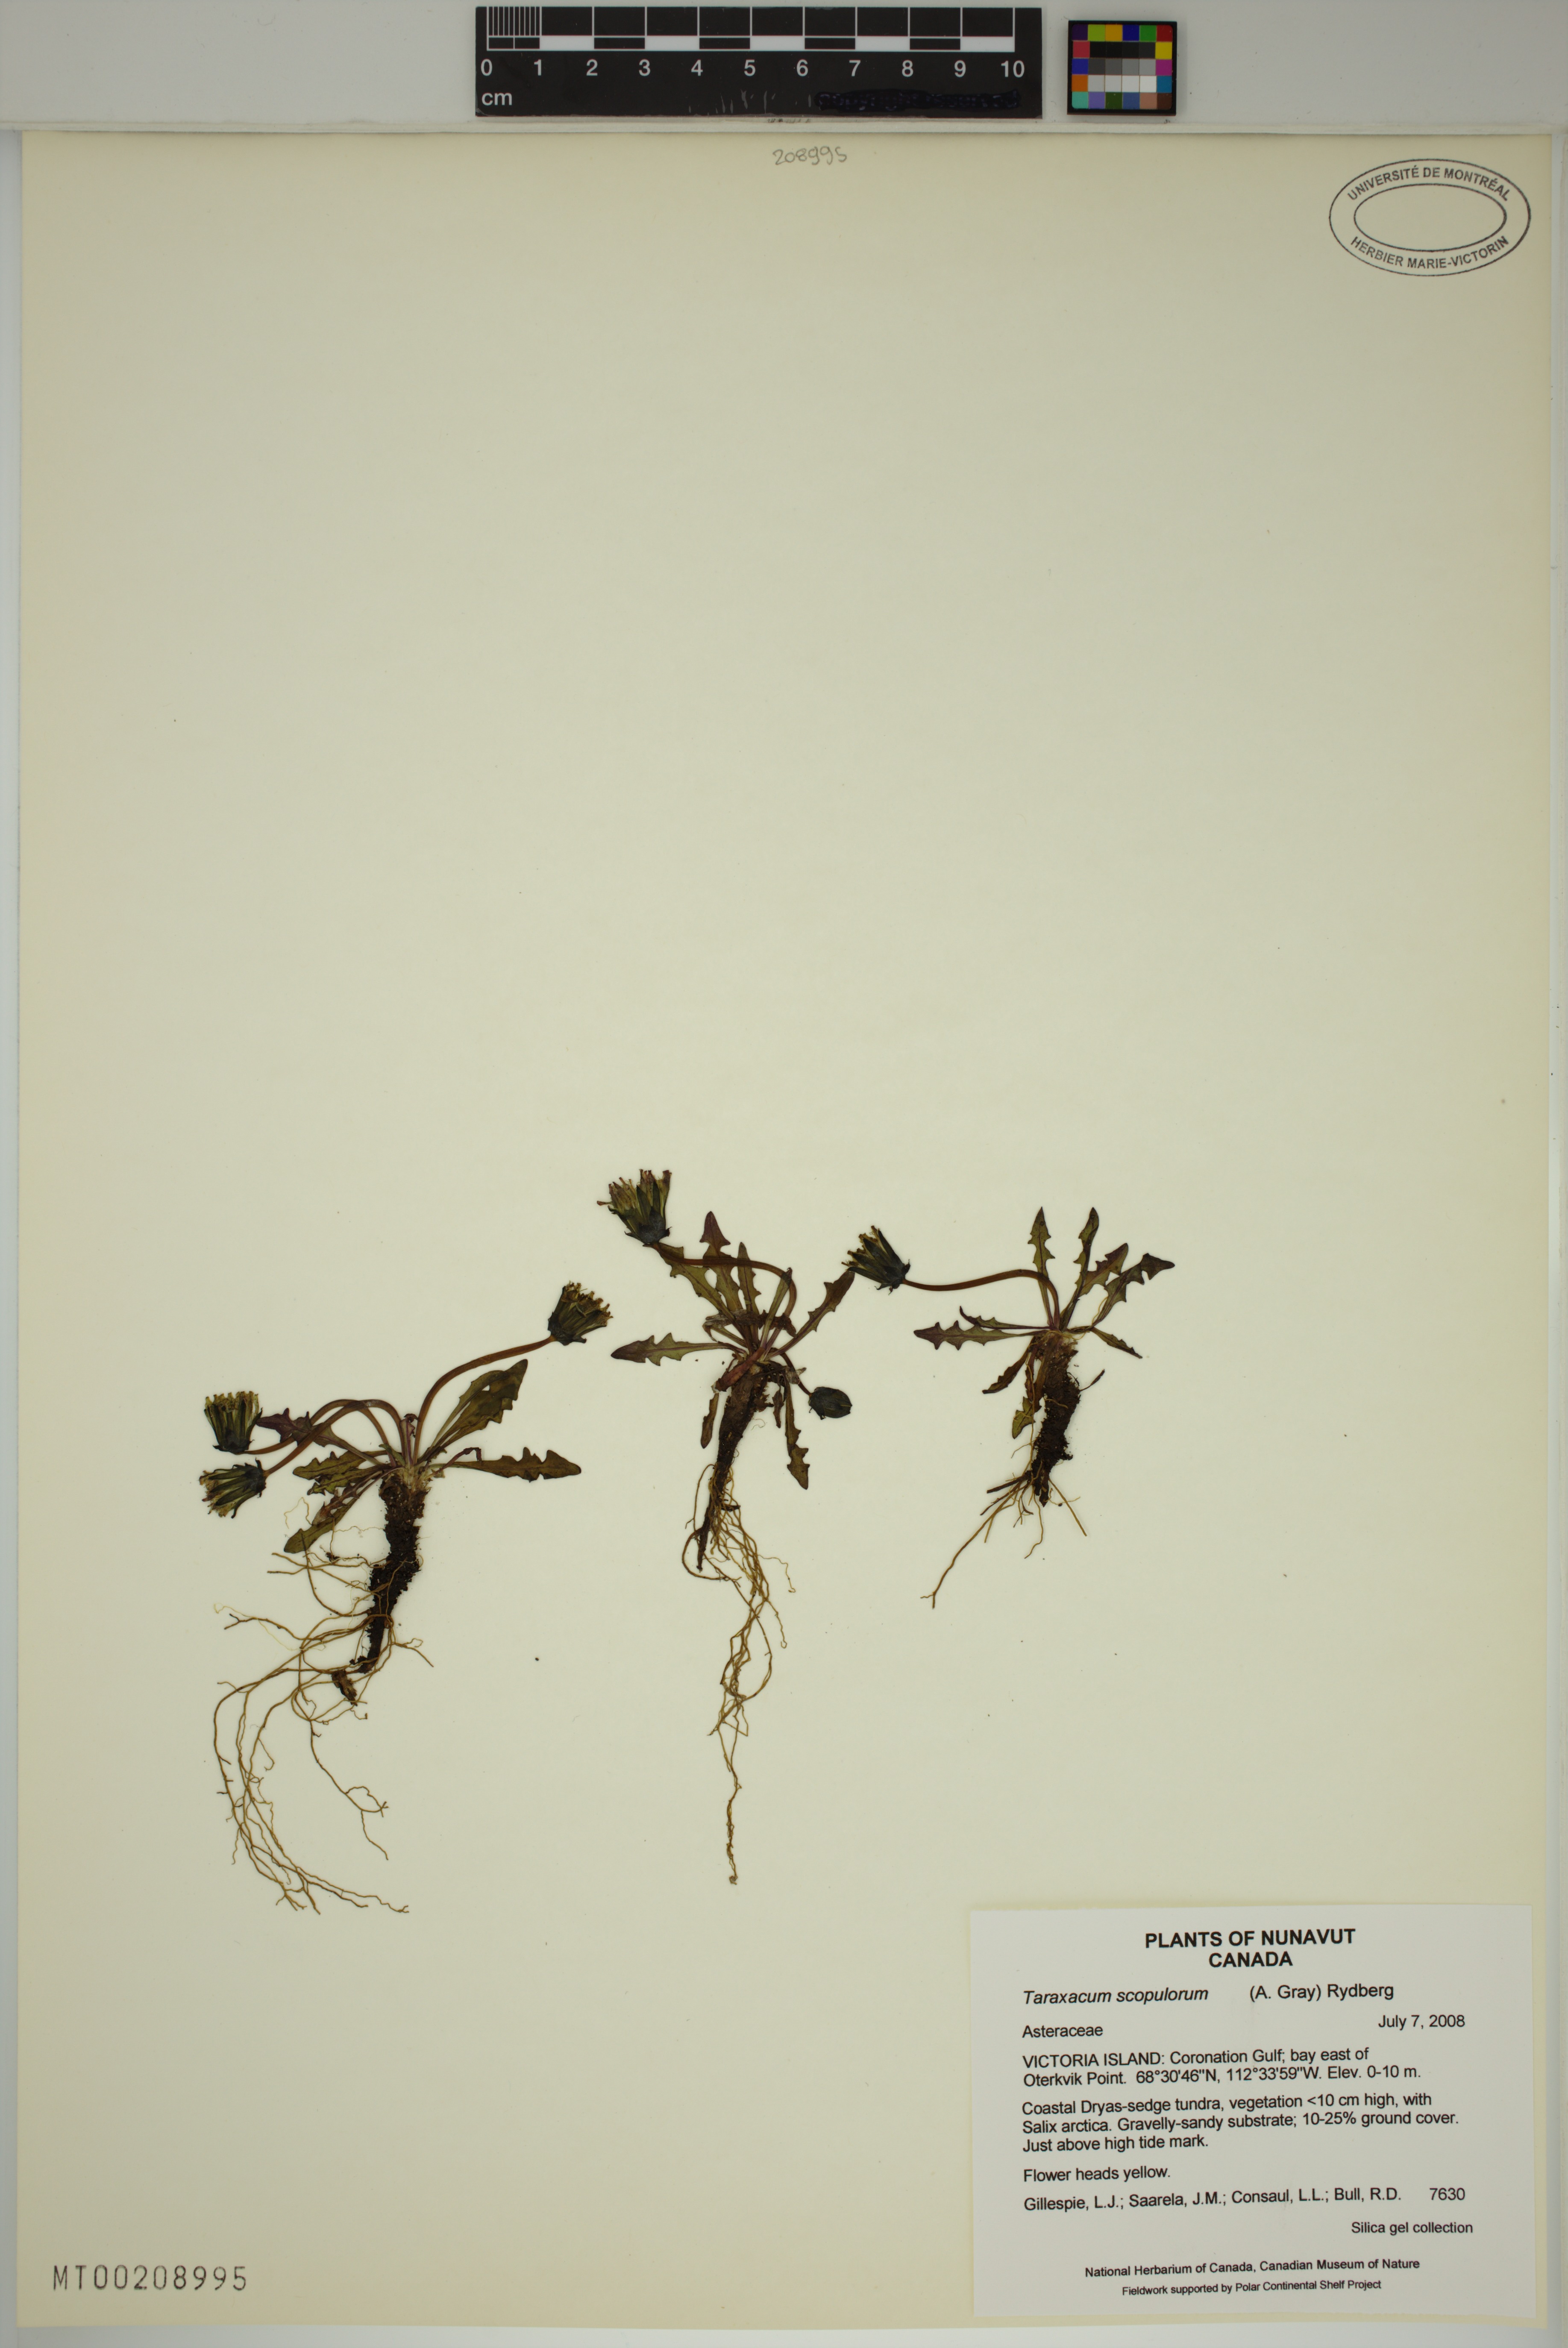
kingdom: Plantae
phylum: Tracheophyta
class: Magnoliopsida
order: Asterales
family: Asteraceae
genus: Taraxacum
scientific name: Taraxacum scopulorum
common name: Alpine dandelion
